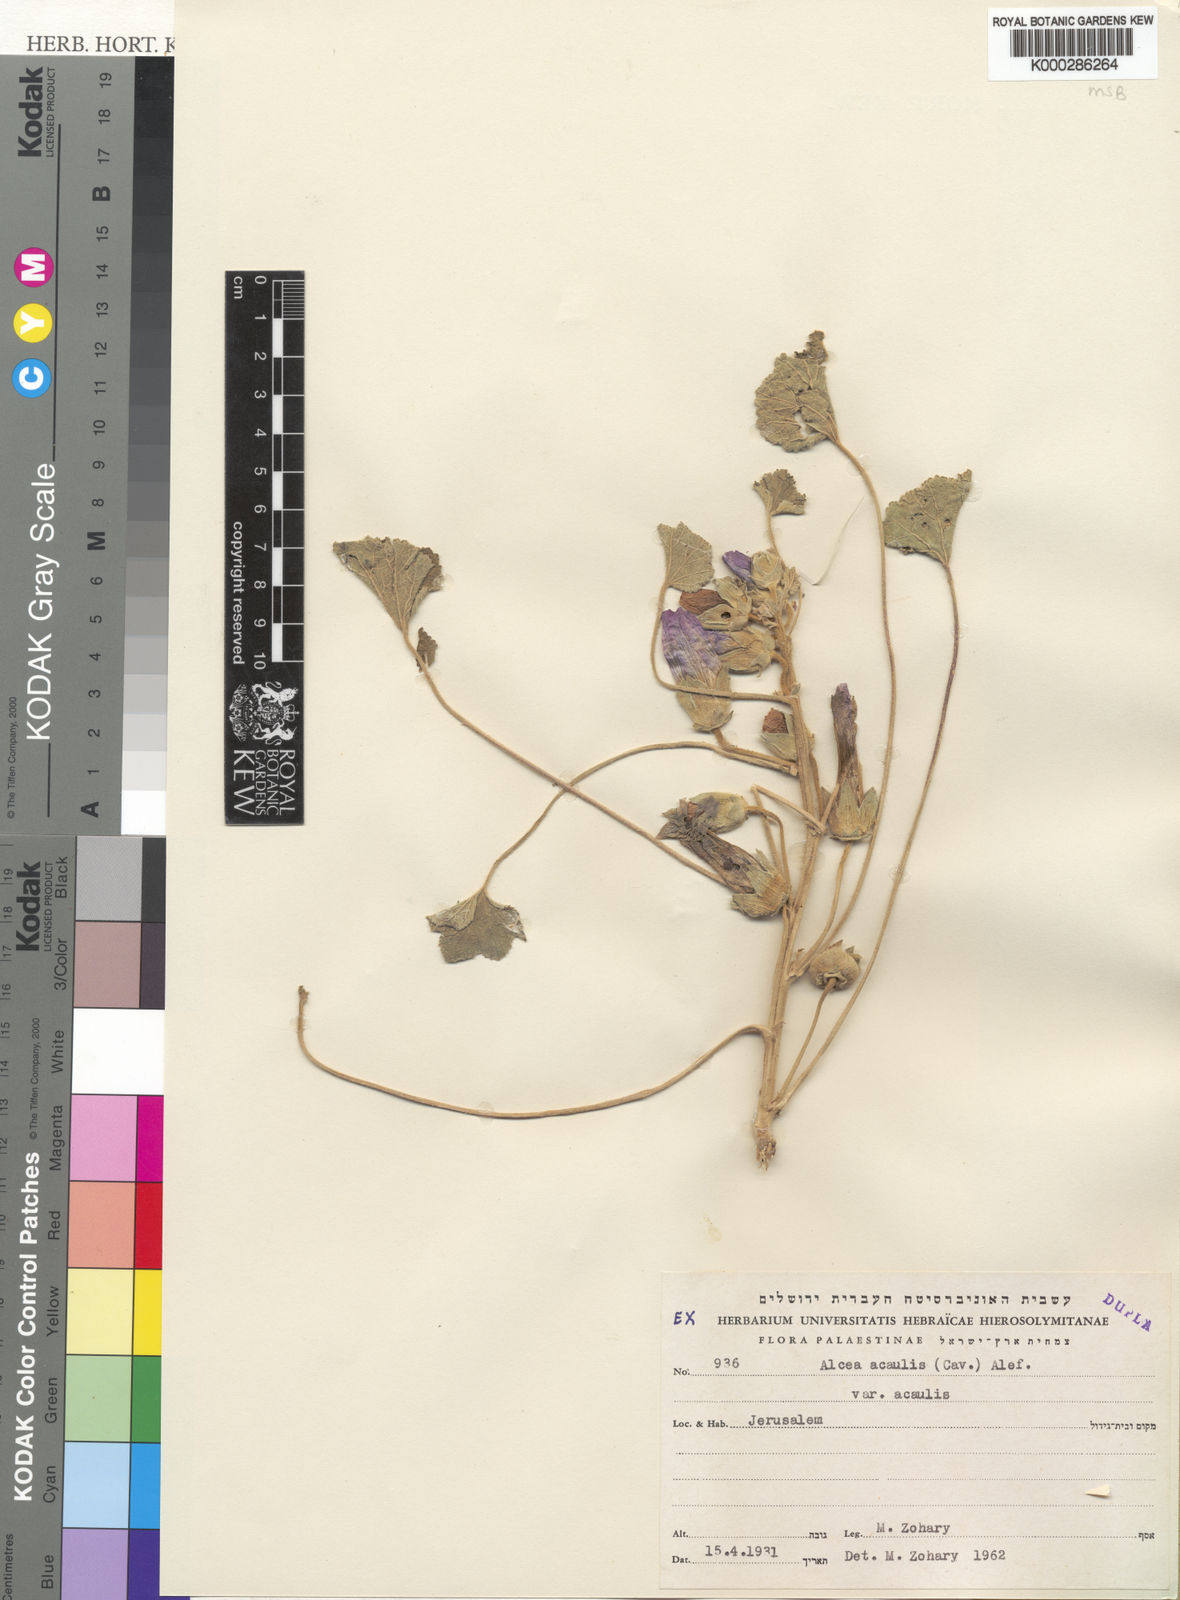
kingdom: Plantae
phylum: Tracheophyta
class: Magnoliopsida
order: Malvales
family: Malvaceae
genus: Alcea
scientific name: Alcea acaulis
